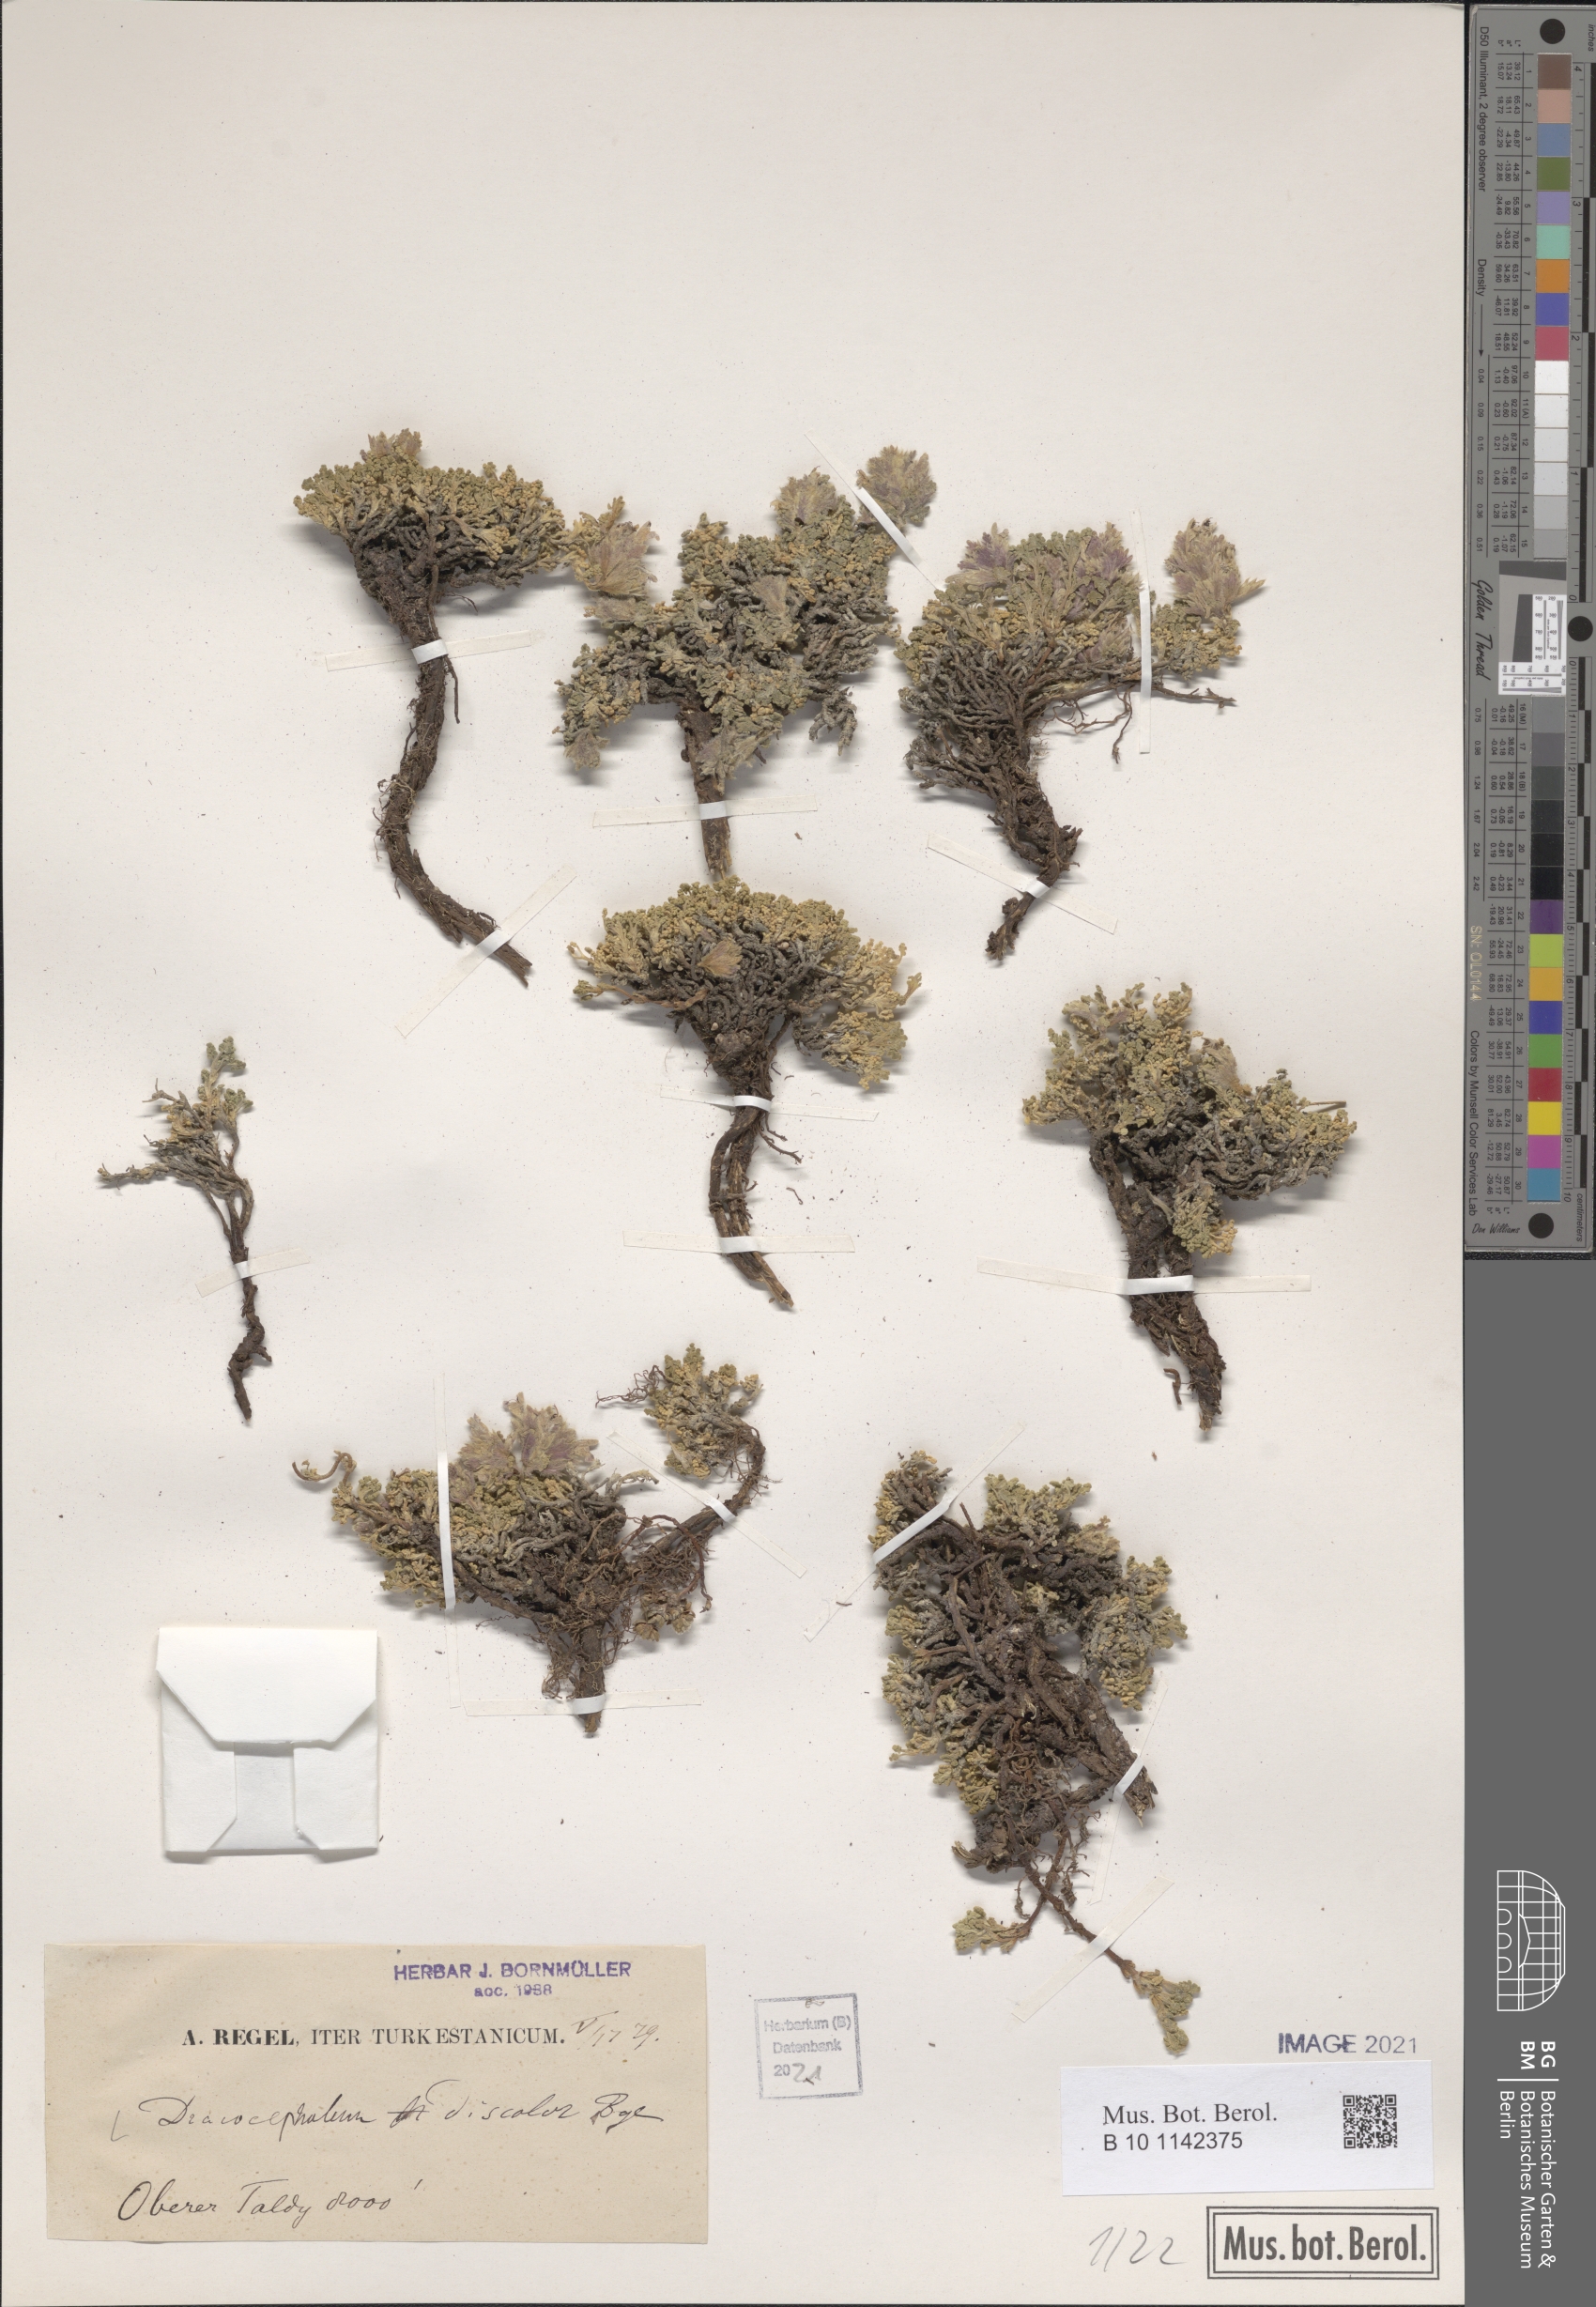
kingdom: Plantae
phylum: Tracheophyta
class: Magnoliopsida
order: Lamiales
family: Lamiaceae
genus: Dracocephalum
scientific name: Dracocephalum discolor
